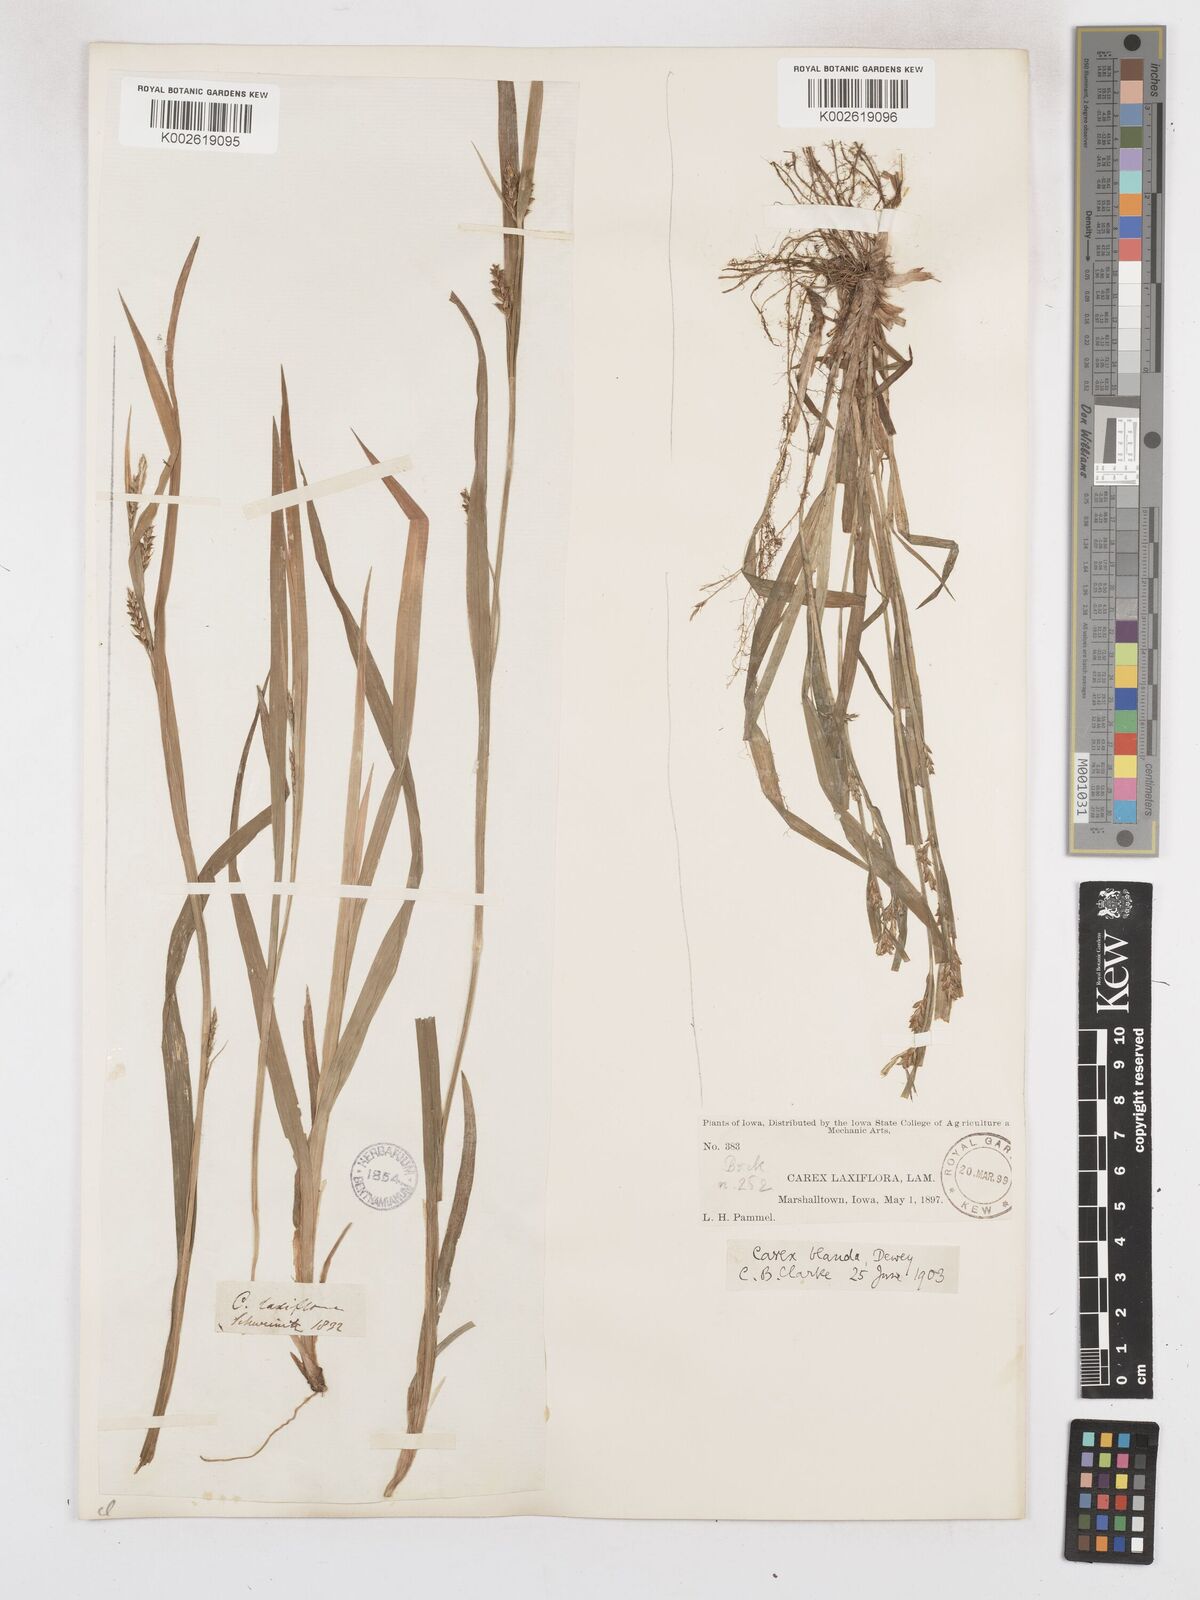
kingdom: Plantae
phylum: Tracheophyta
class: Liliopsida
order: Poales
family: Cyperaceae
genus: Carex
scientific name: Carex blanda
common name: Bland sedge
